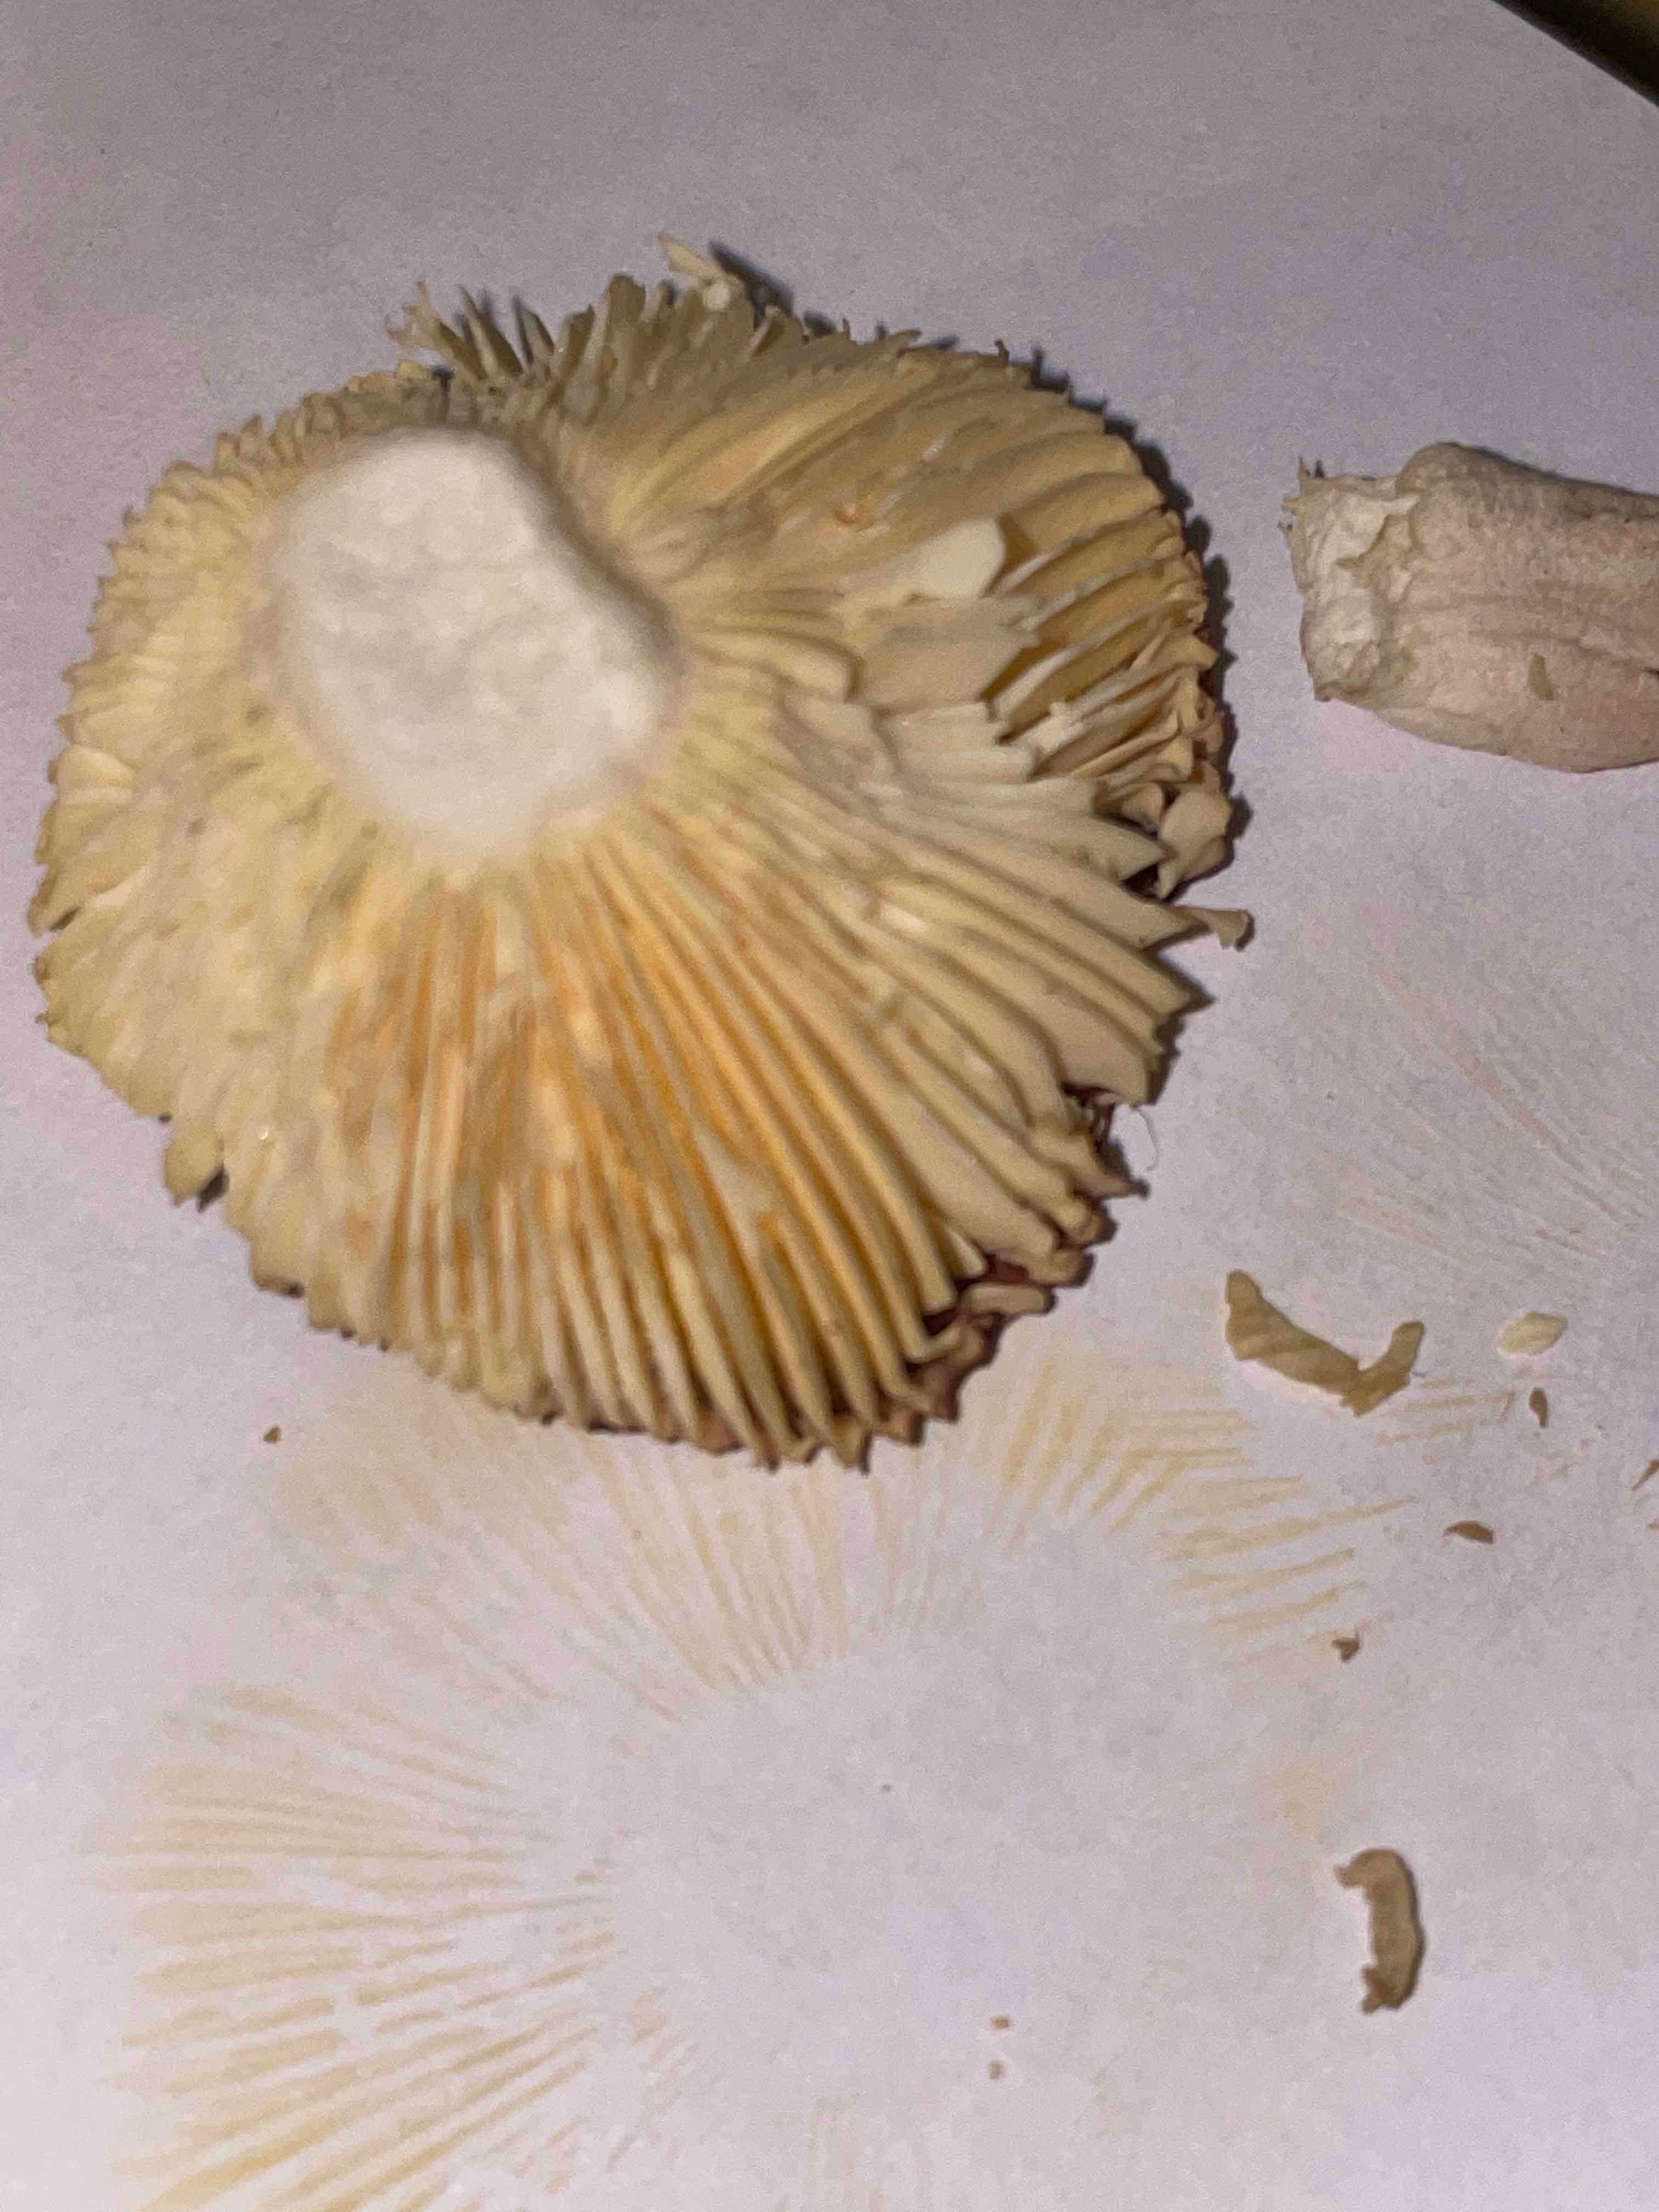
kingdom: Fungi
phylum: Basidiomycota
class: Agaricomycetes
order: Russulales
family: Russulaceae
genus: Russula
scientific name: Russula
